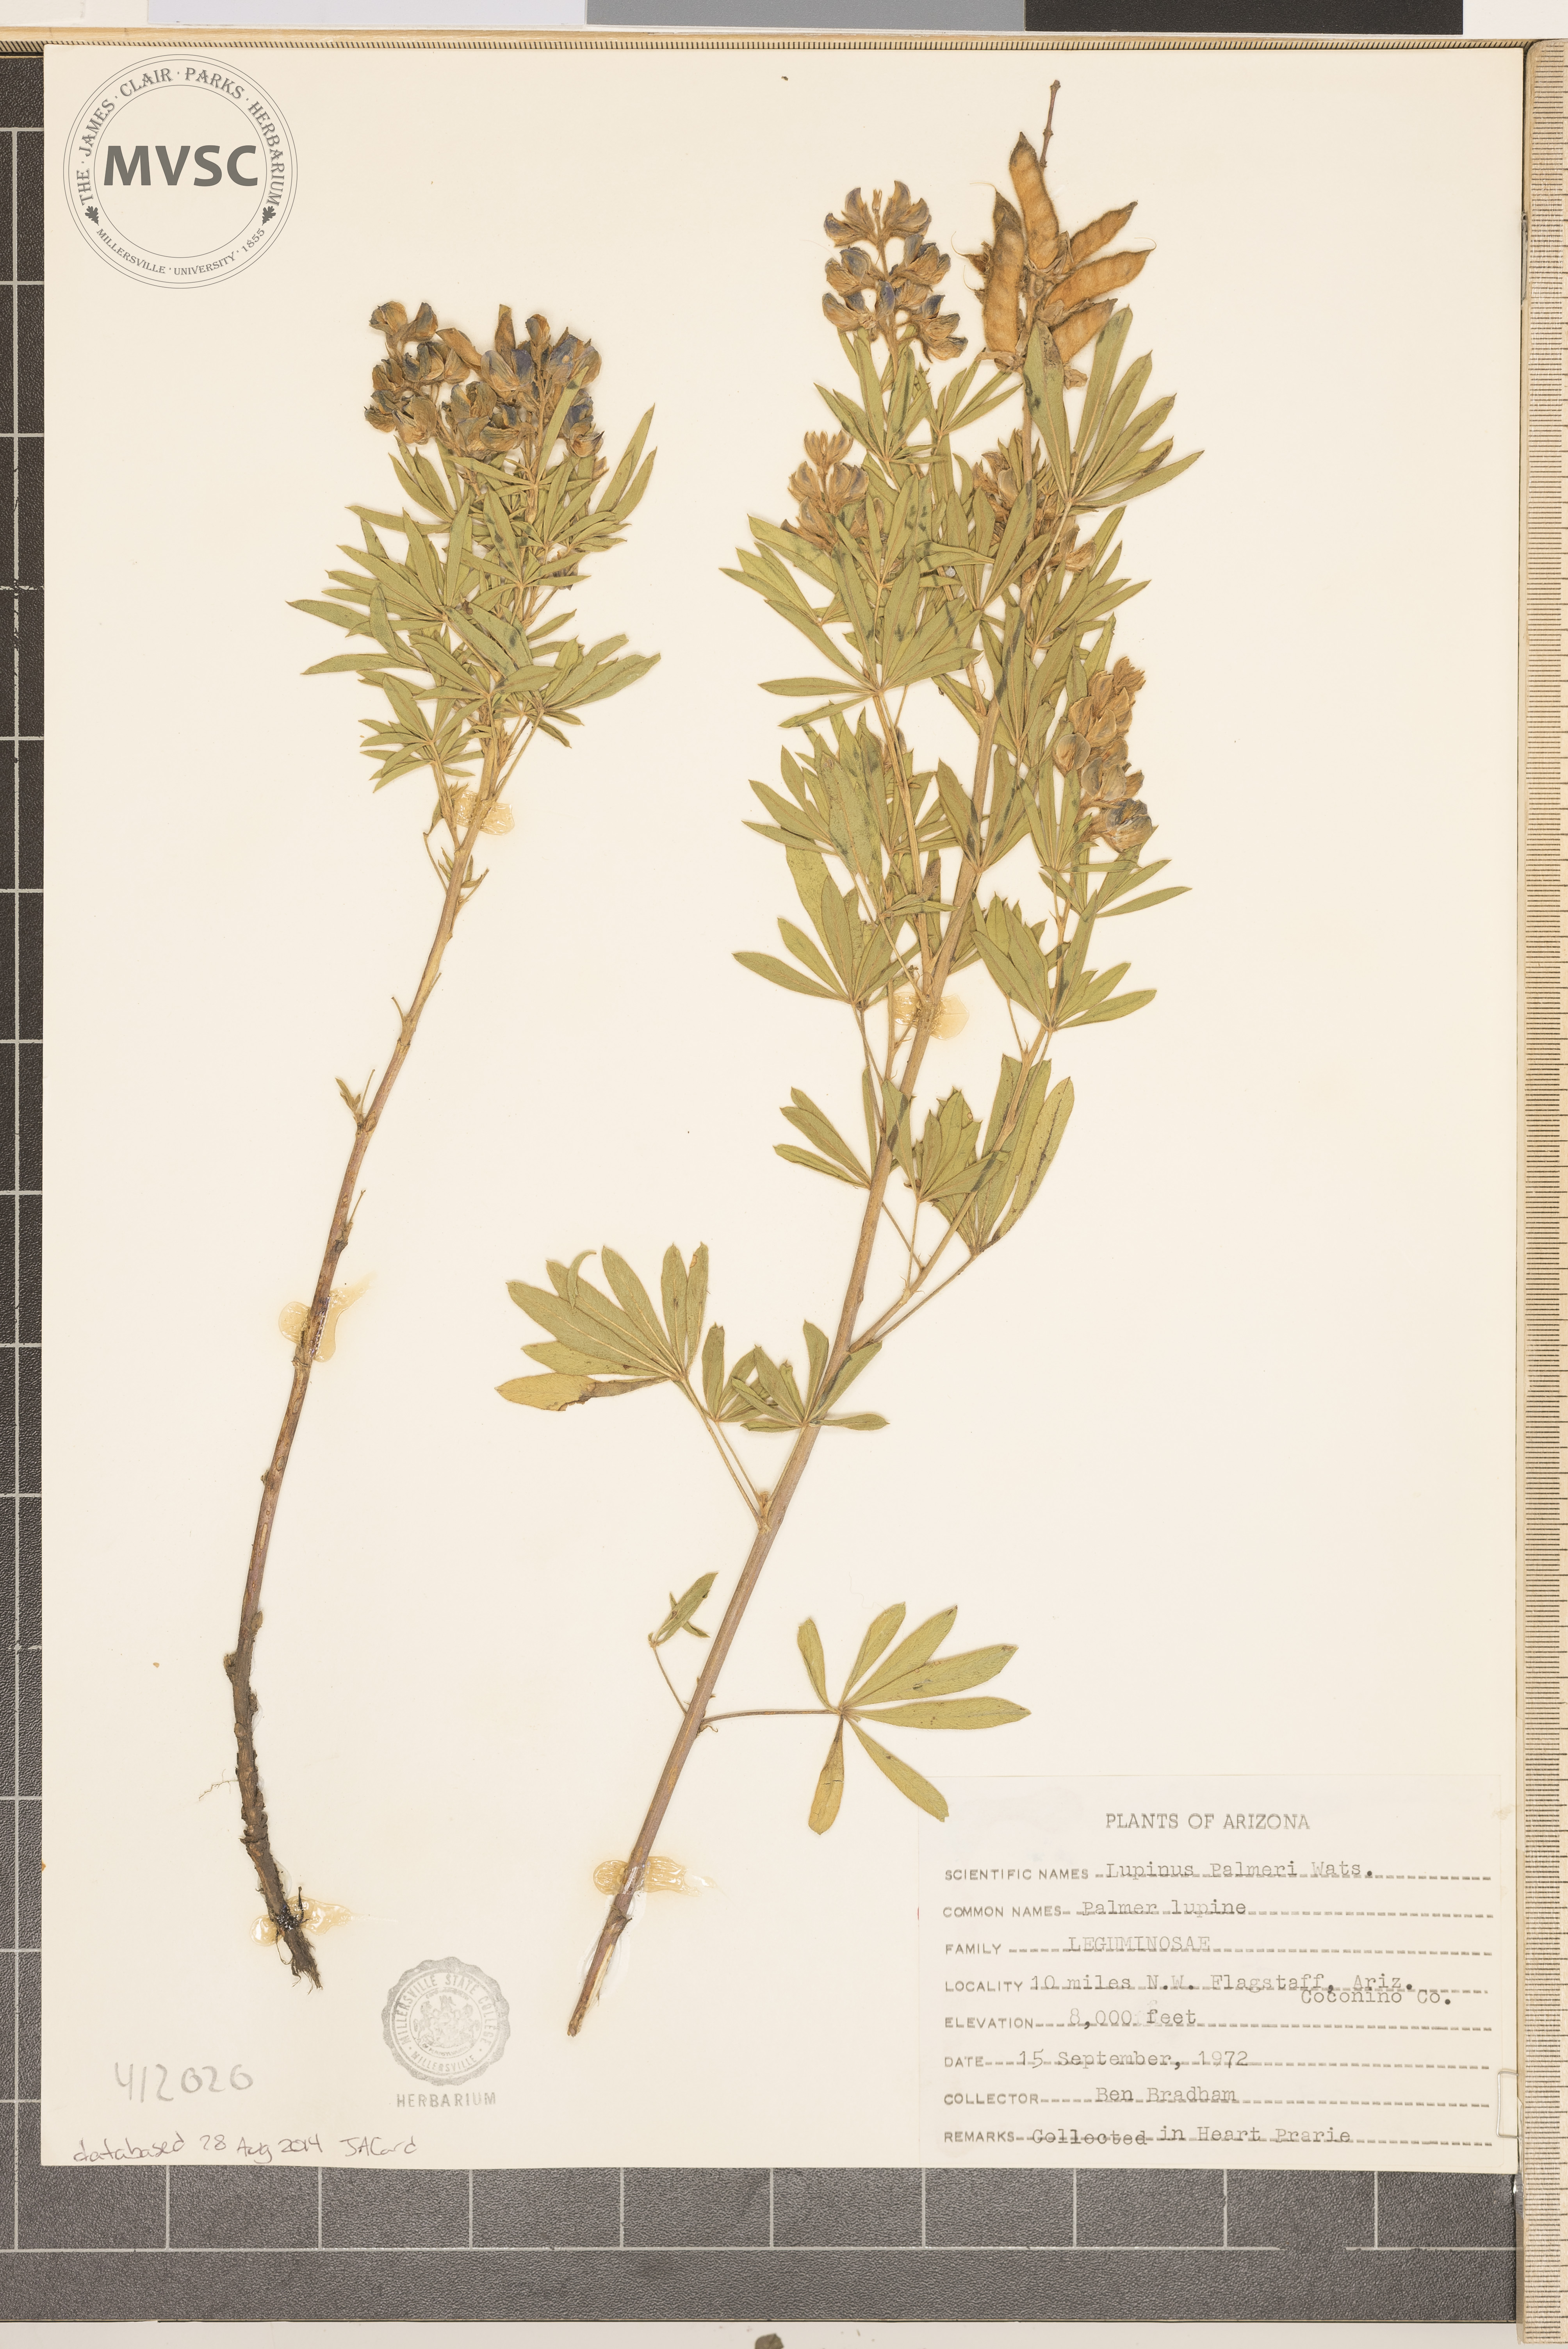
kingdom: Plantae
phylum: Tracheophyta
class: Magnoliopsida
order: Fabales
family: Fabaceae
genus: Lupinus
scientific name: Lupinus argenteus
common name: Silvery lupine
